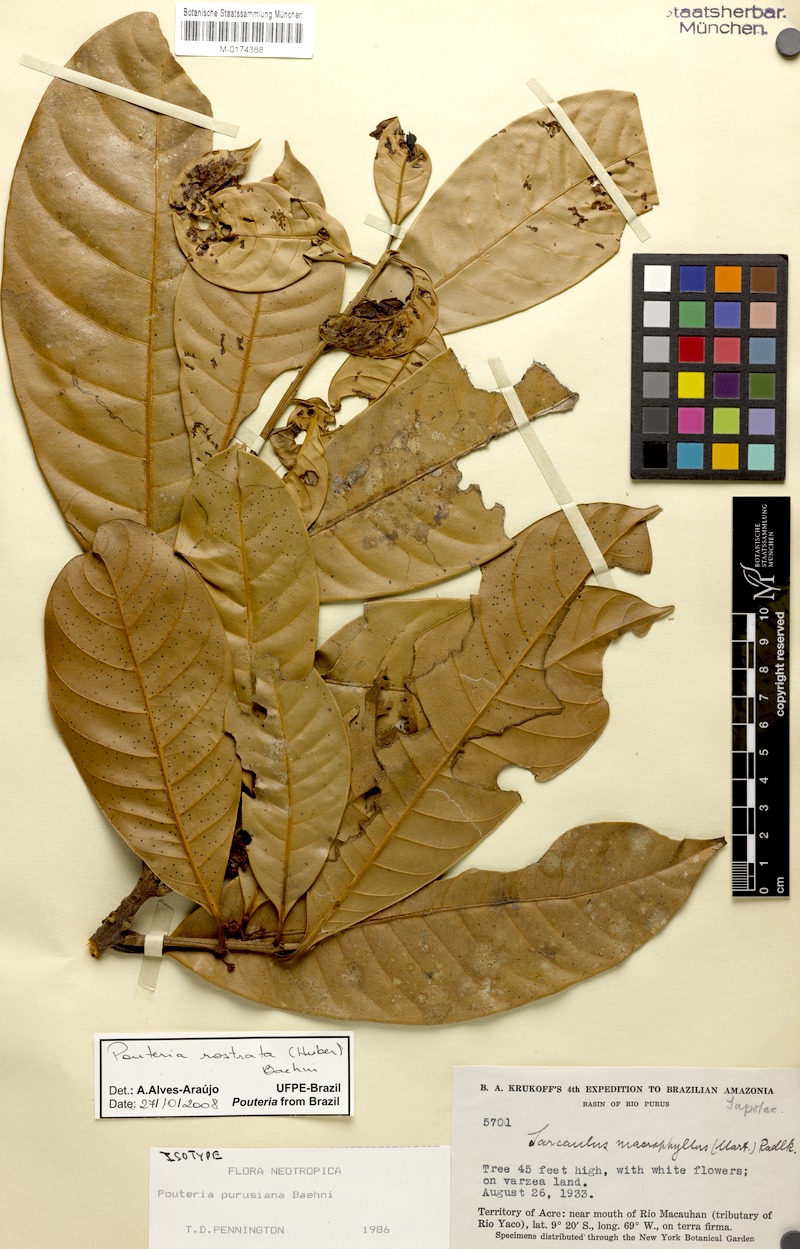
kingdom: Plantae
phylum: Tracheophyta
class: Magnoliopsida
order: Ericales
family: Sapotaceae
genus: Pouteria
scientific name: Pouteria rostrata
